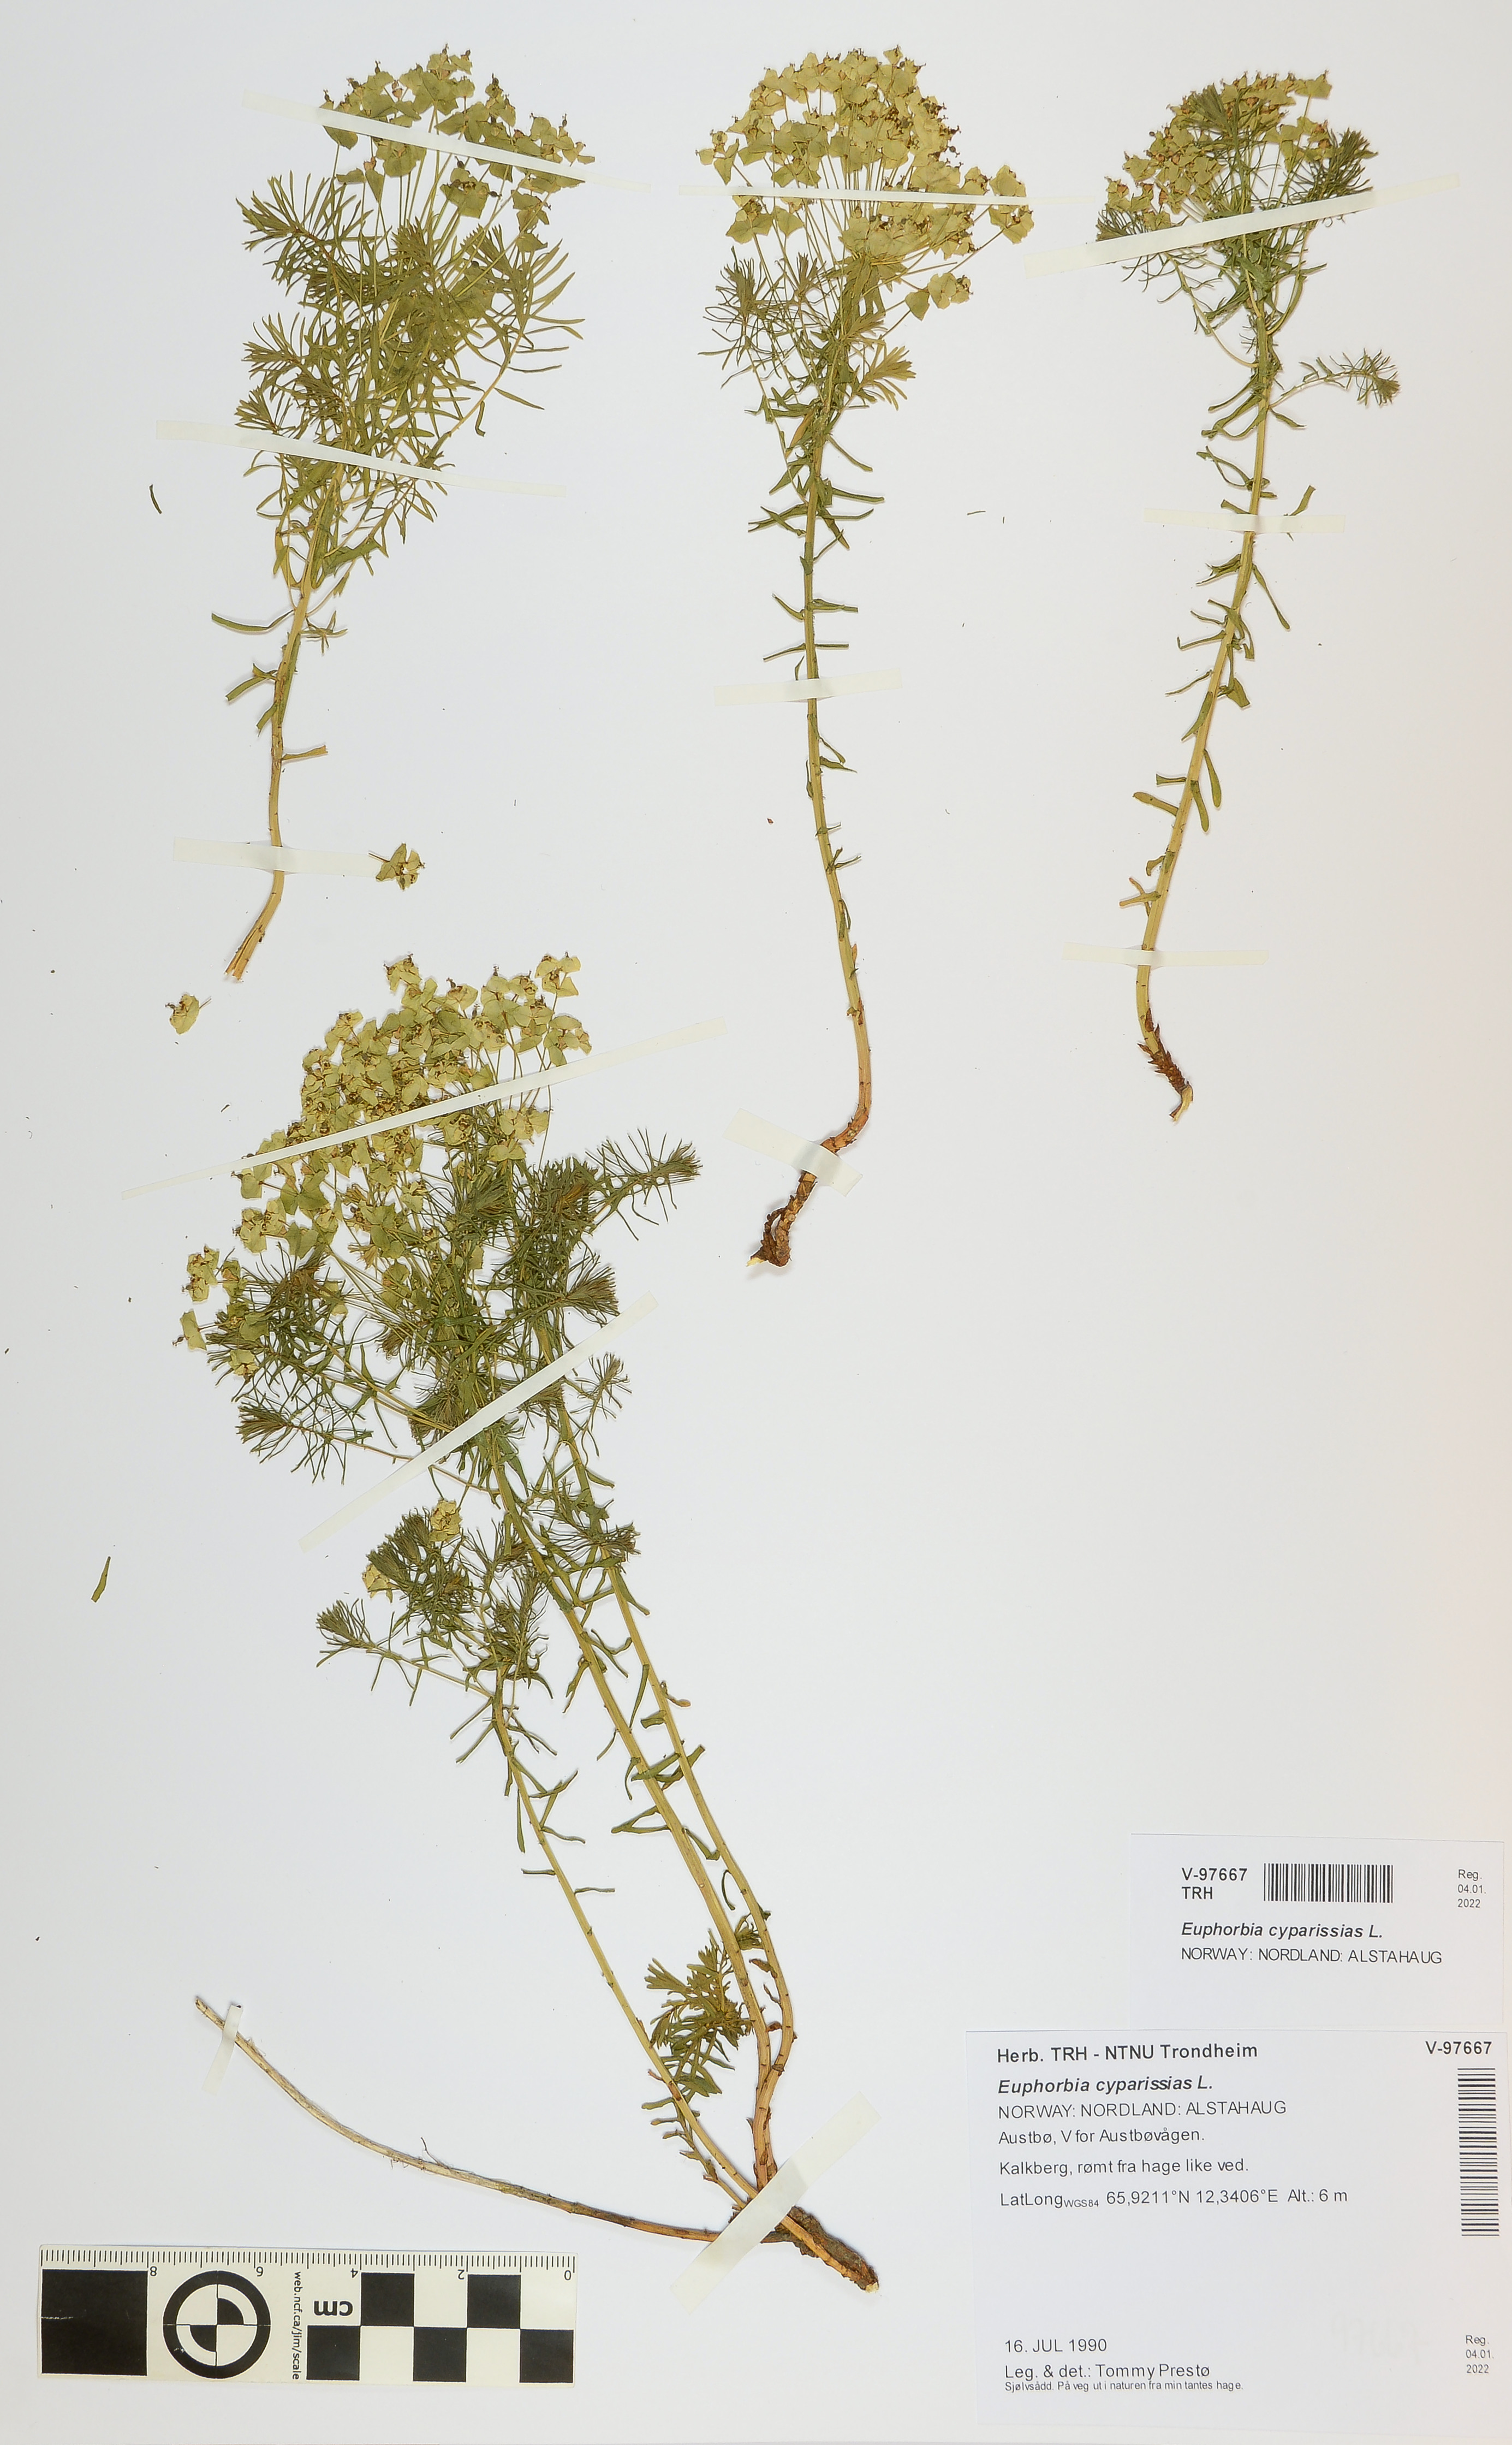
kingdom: Plantae
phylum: Tracheophyta
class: Magnoliopsida
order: Malpighiales
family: Euphorbiaceae
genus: Euphorbia
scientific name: Euphorbia cyparissias
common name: Cypress spurge
